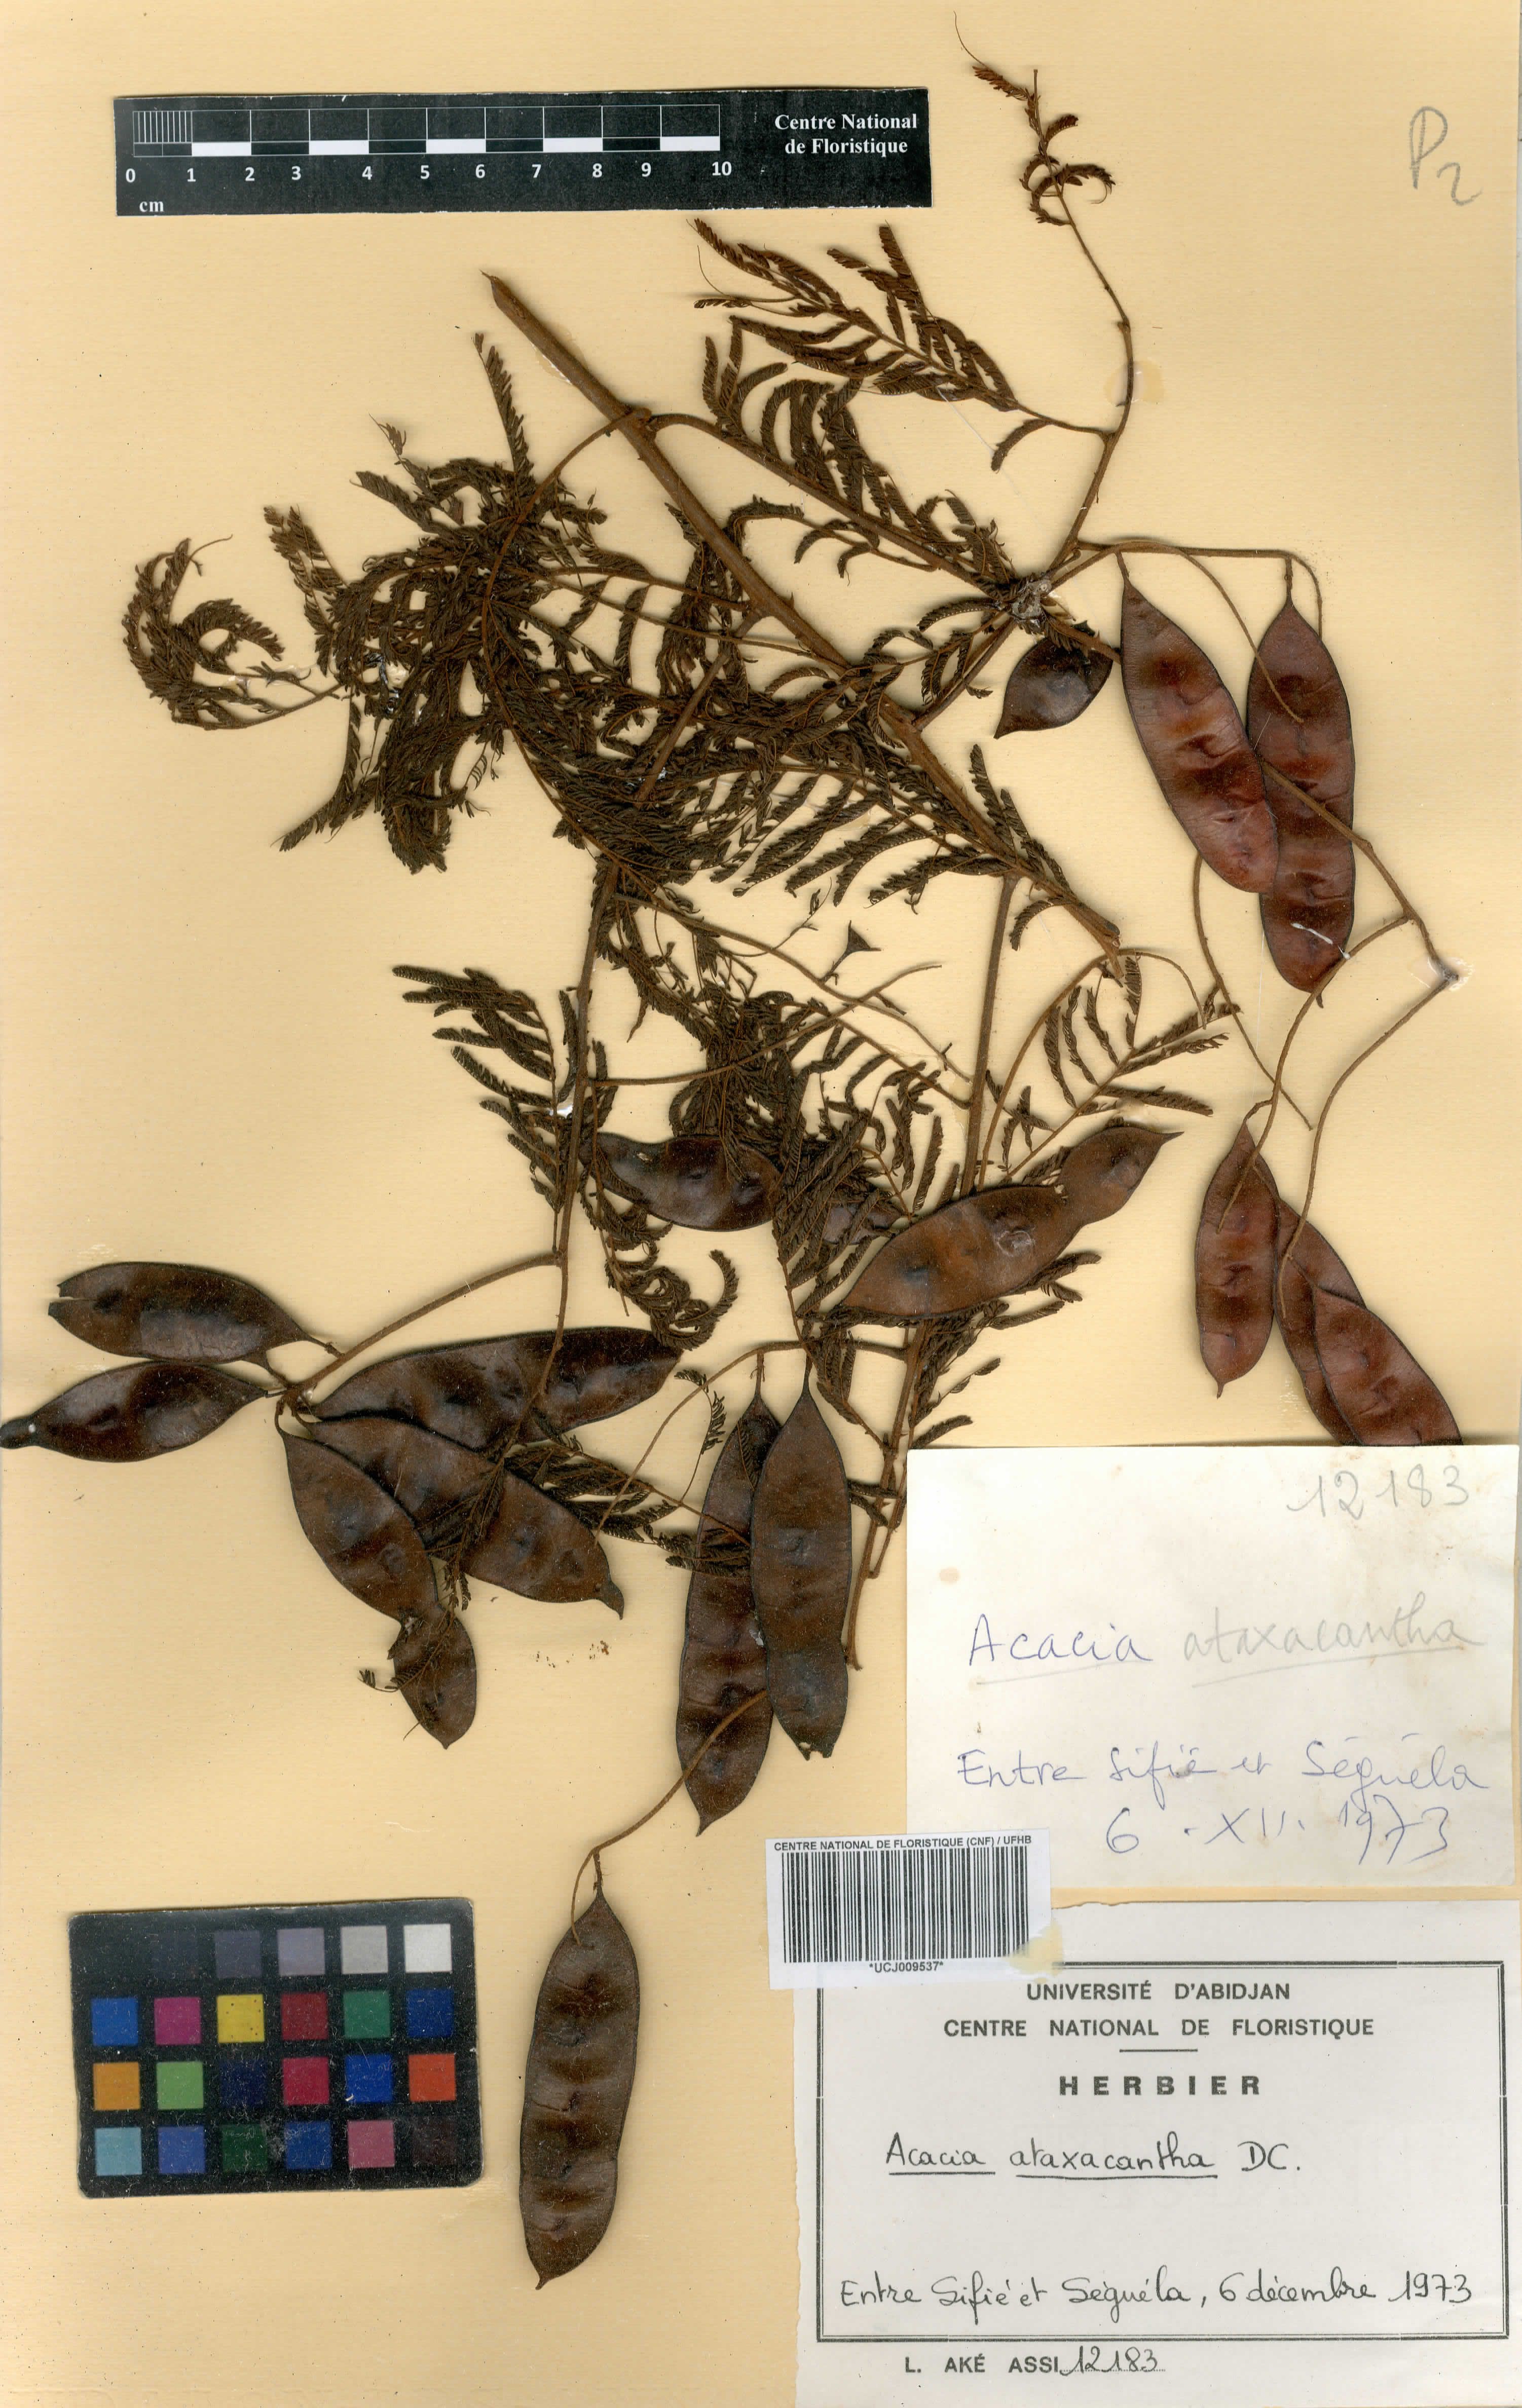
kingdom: Plantae
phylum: Tracheophyta
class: Magnoliopsida
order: Fabales
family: Fabaceae
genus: Senegalia
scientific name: Senegalia ataxacantha
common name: Flame acacia
